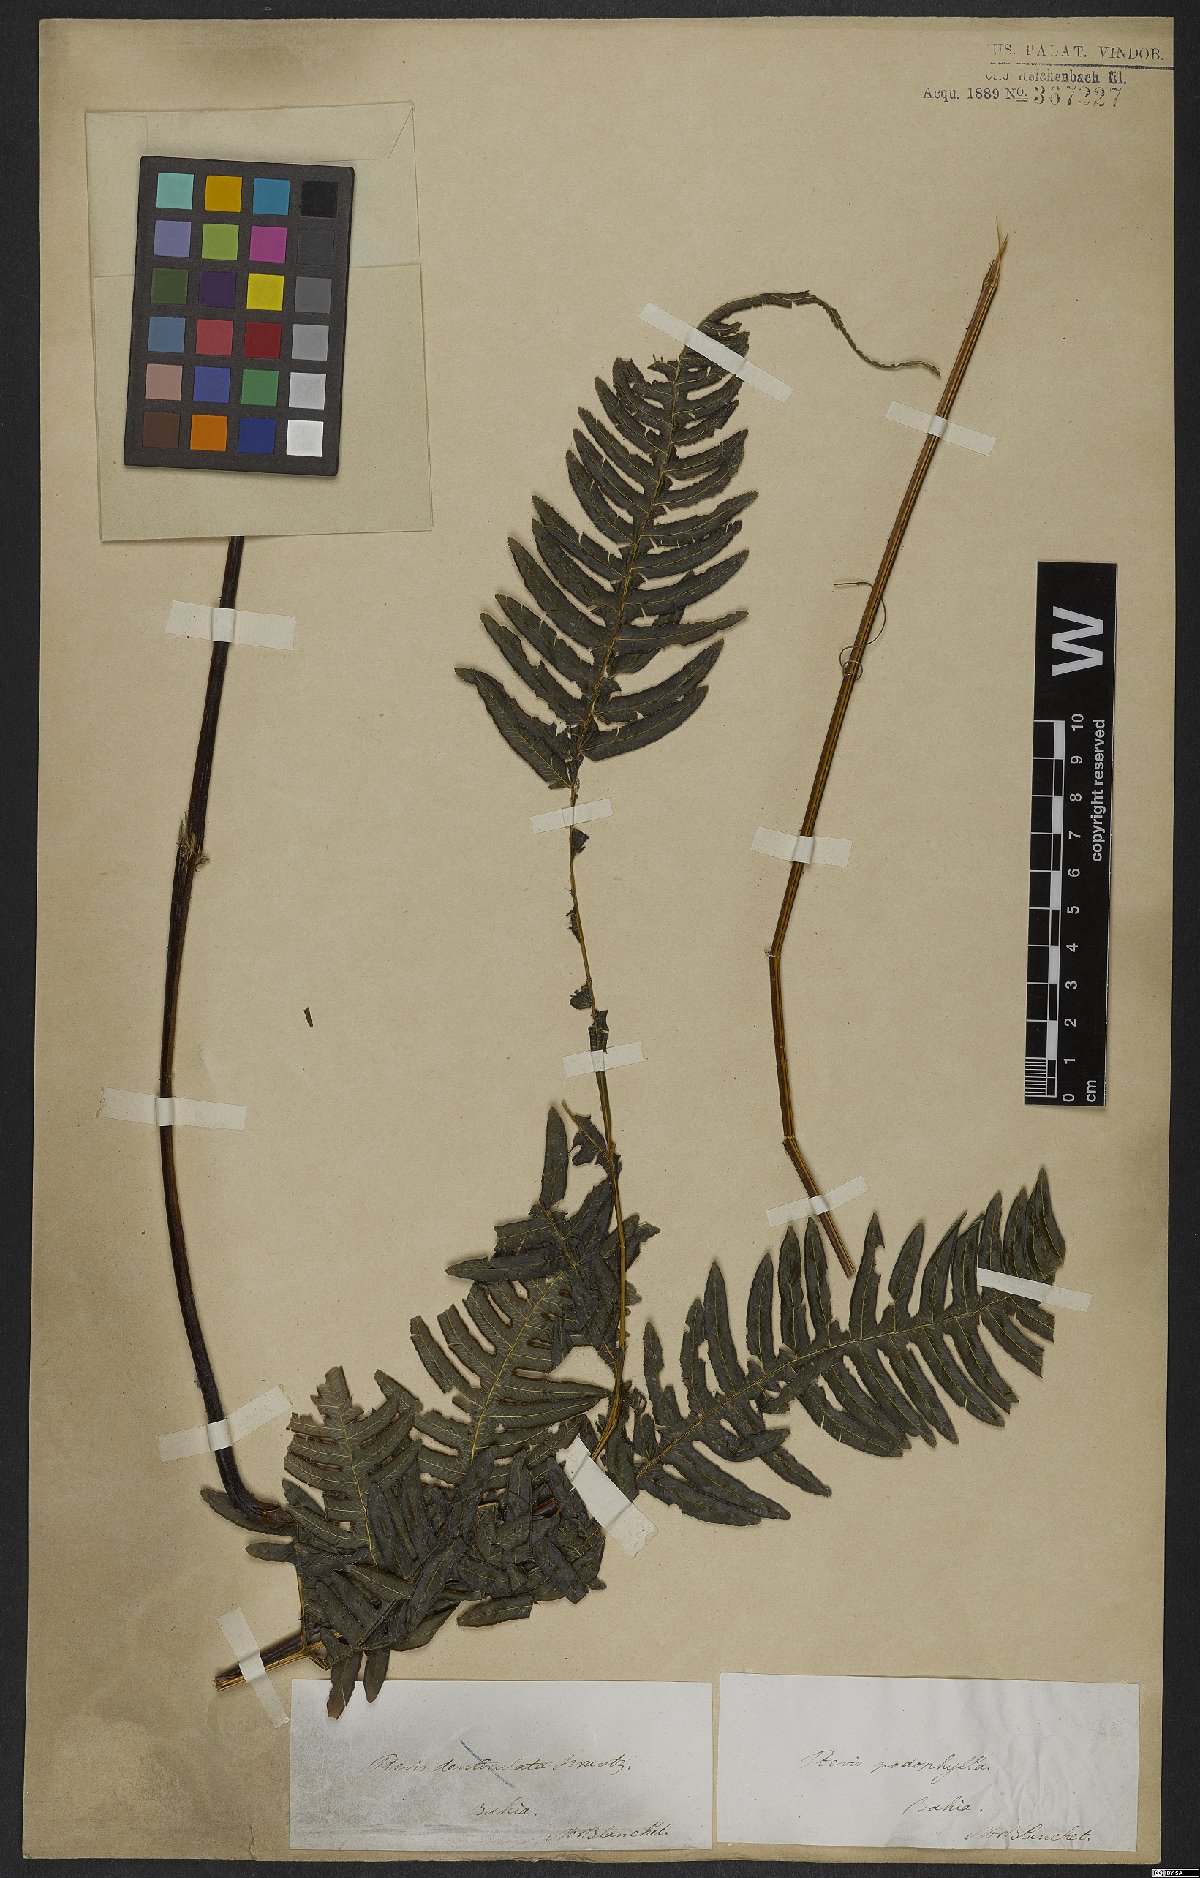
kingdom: Plantae
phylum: Tracheophyta
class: Polypodiopsida
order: Polypodiales
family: Pteridaceae
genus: Pteris
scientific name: Pteris podophylla
